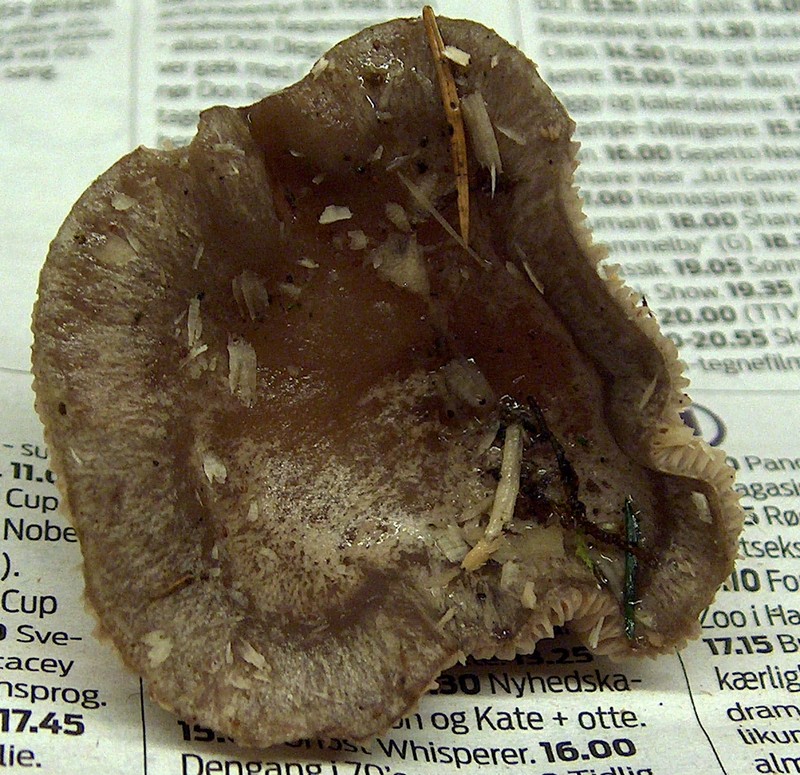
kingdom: Fungi
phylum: Basidiomycota
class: Agaricomycetes
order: Russulales
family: Russulaceae
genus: Lactarius
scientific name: Lactarius blennius
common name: dråbeplettet mælkehat
